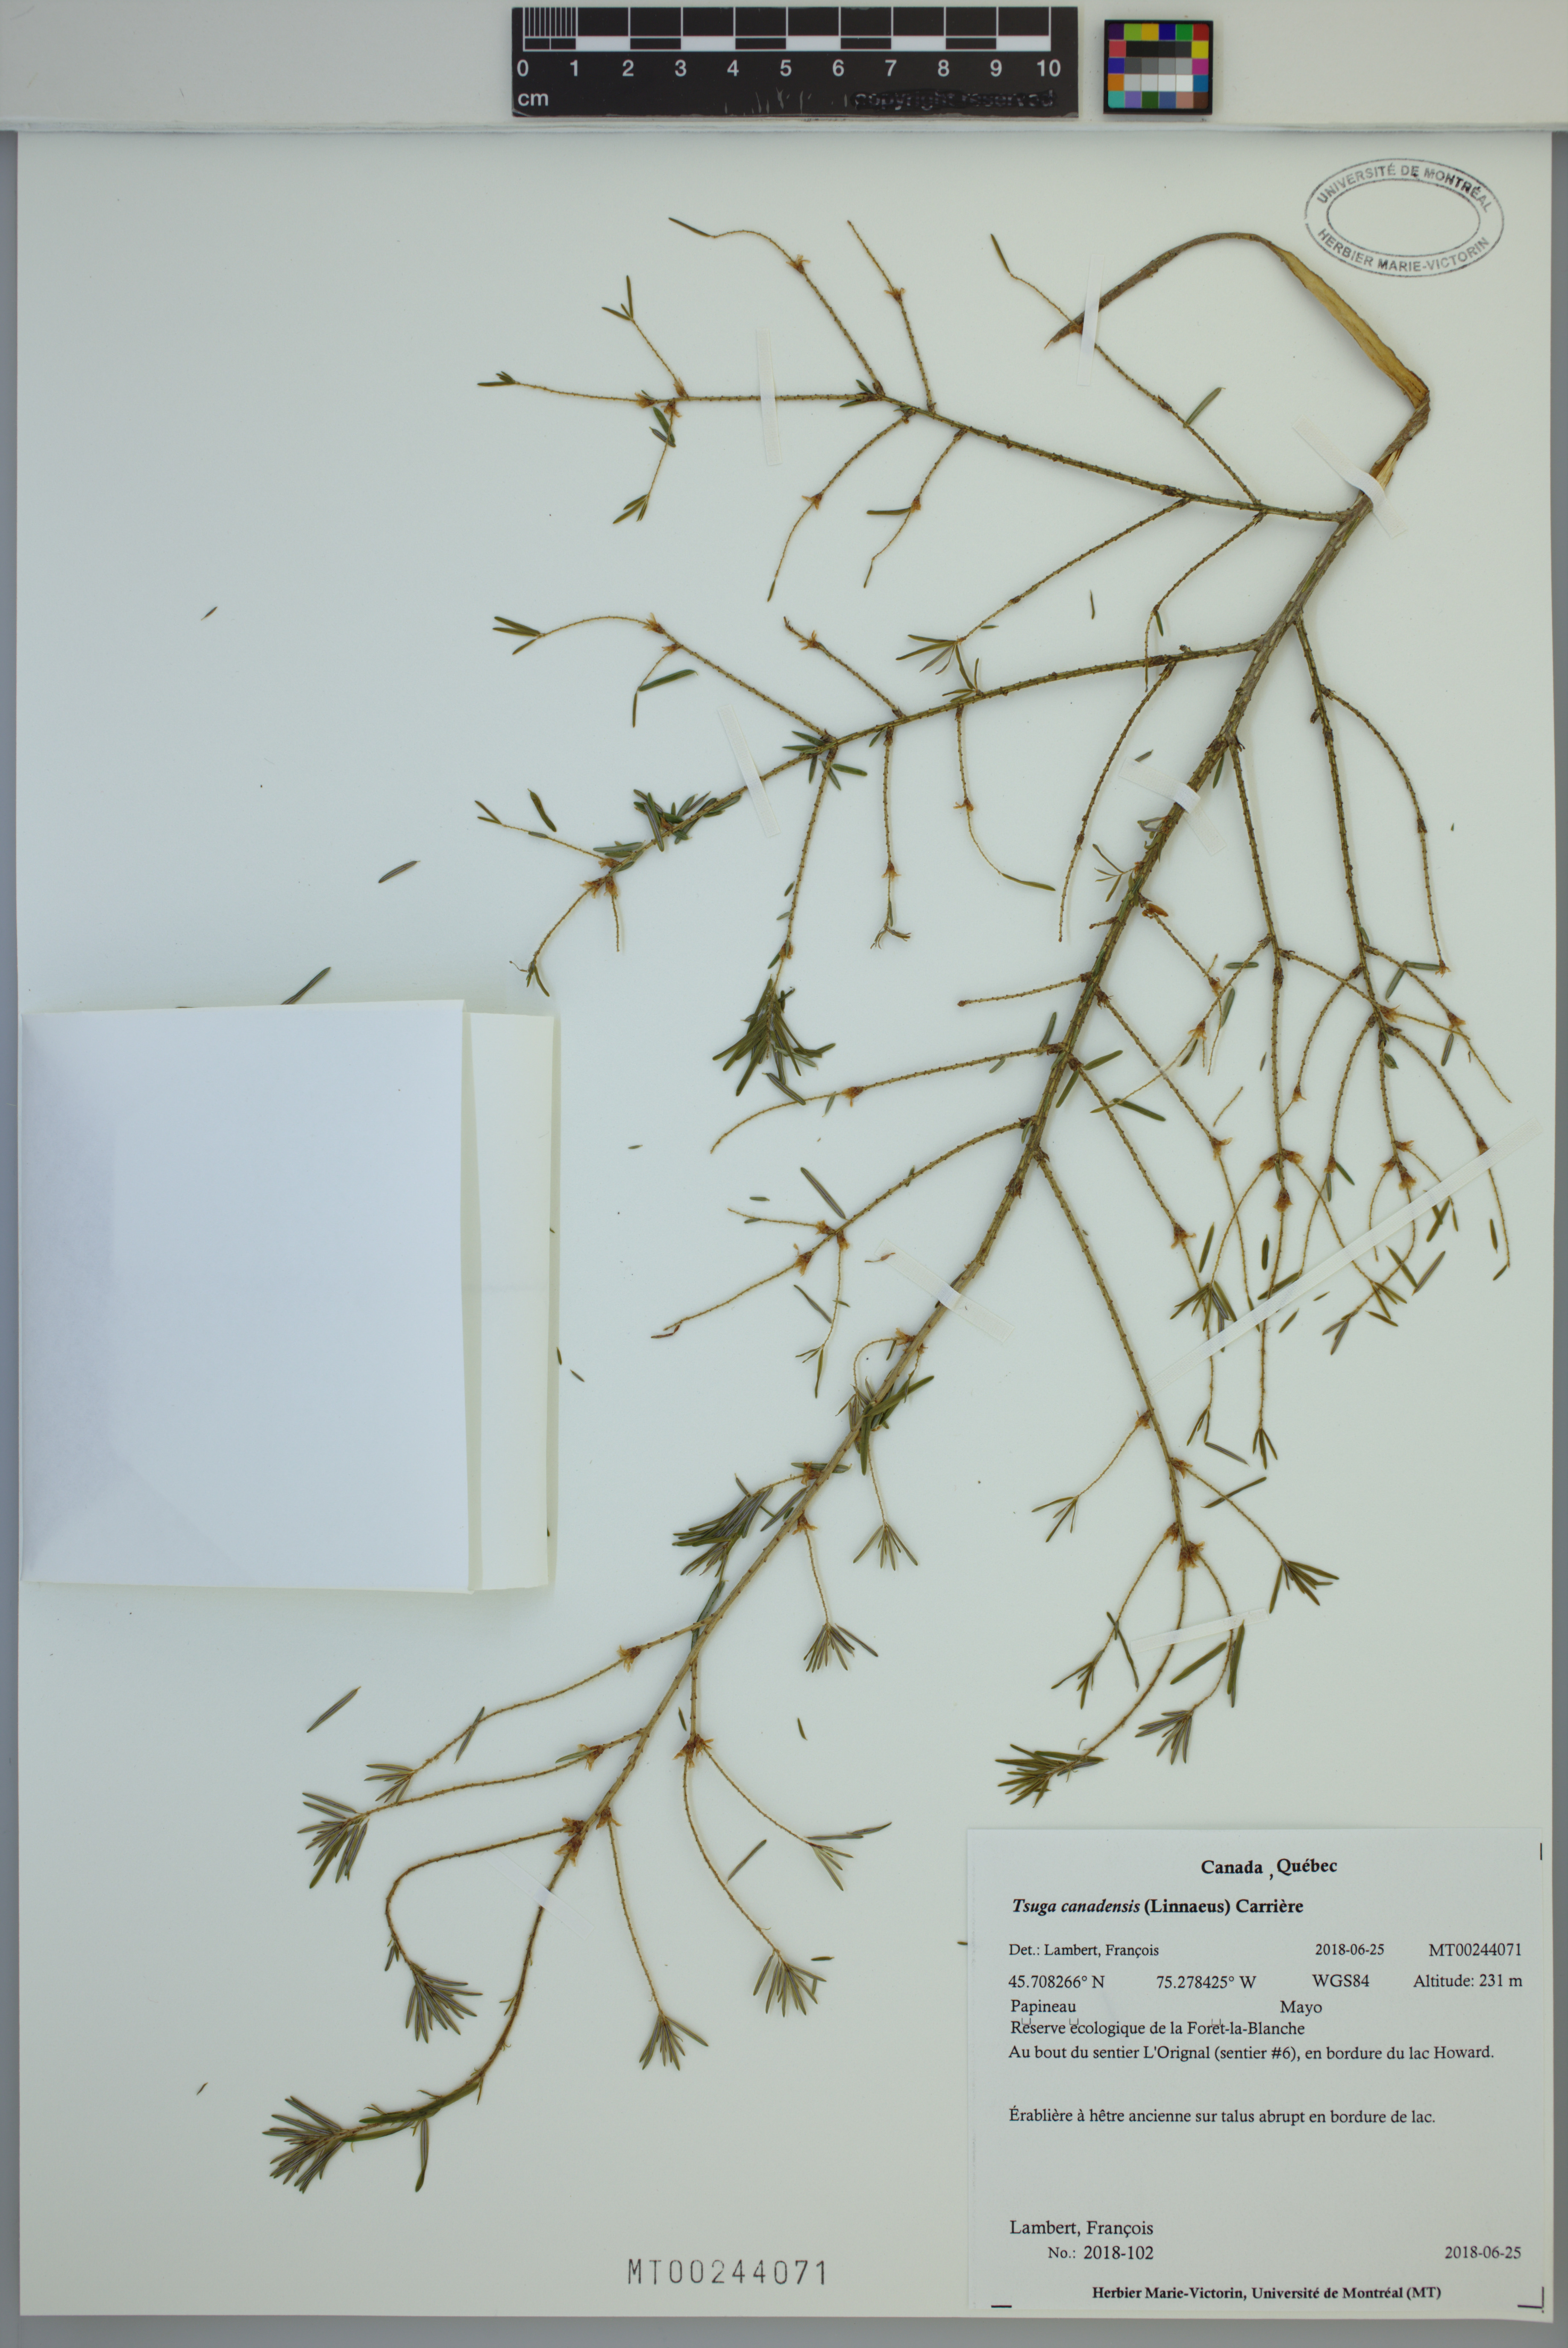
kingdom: Plantae
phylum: Tracheophyta
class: Pinopsida
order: Pinales
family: Pinaceae
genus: Tsuga
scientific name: Tsuga canadensis
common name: Eastern hemlock
